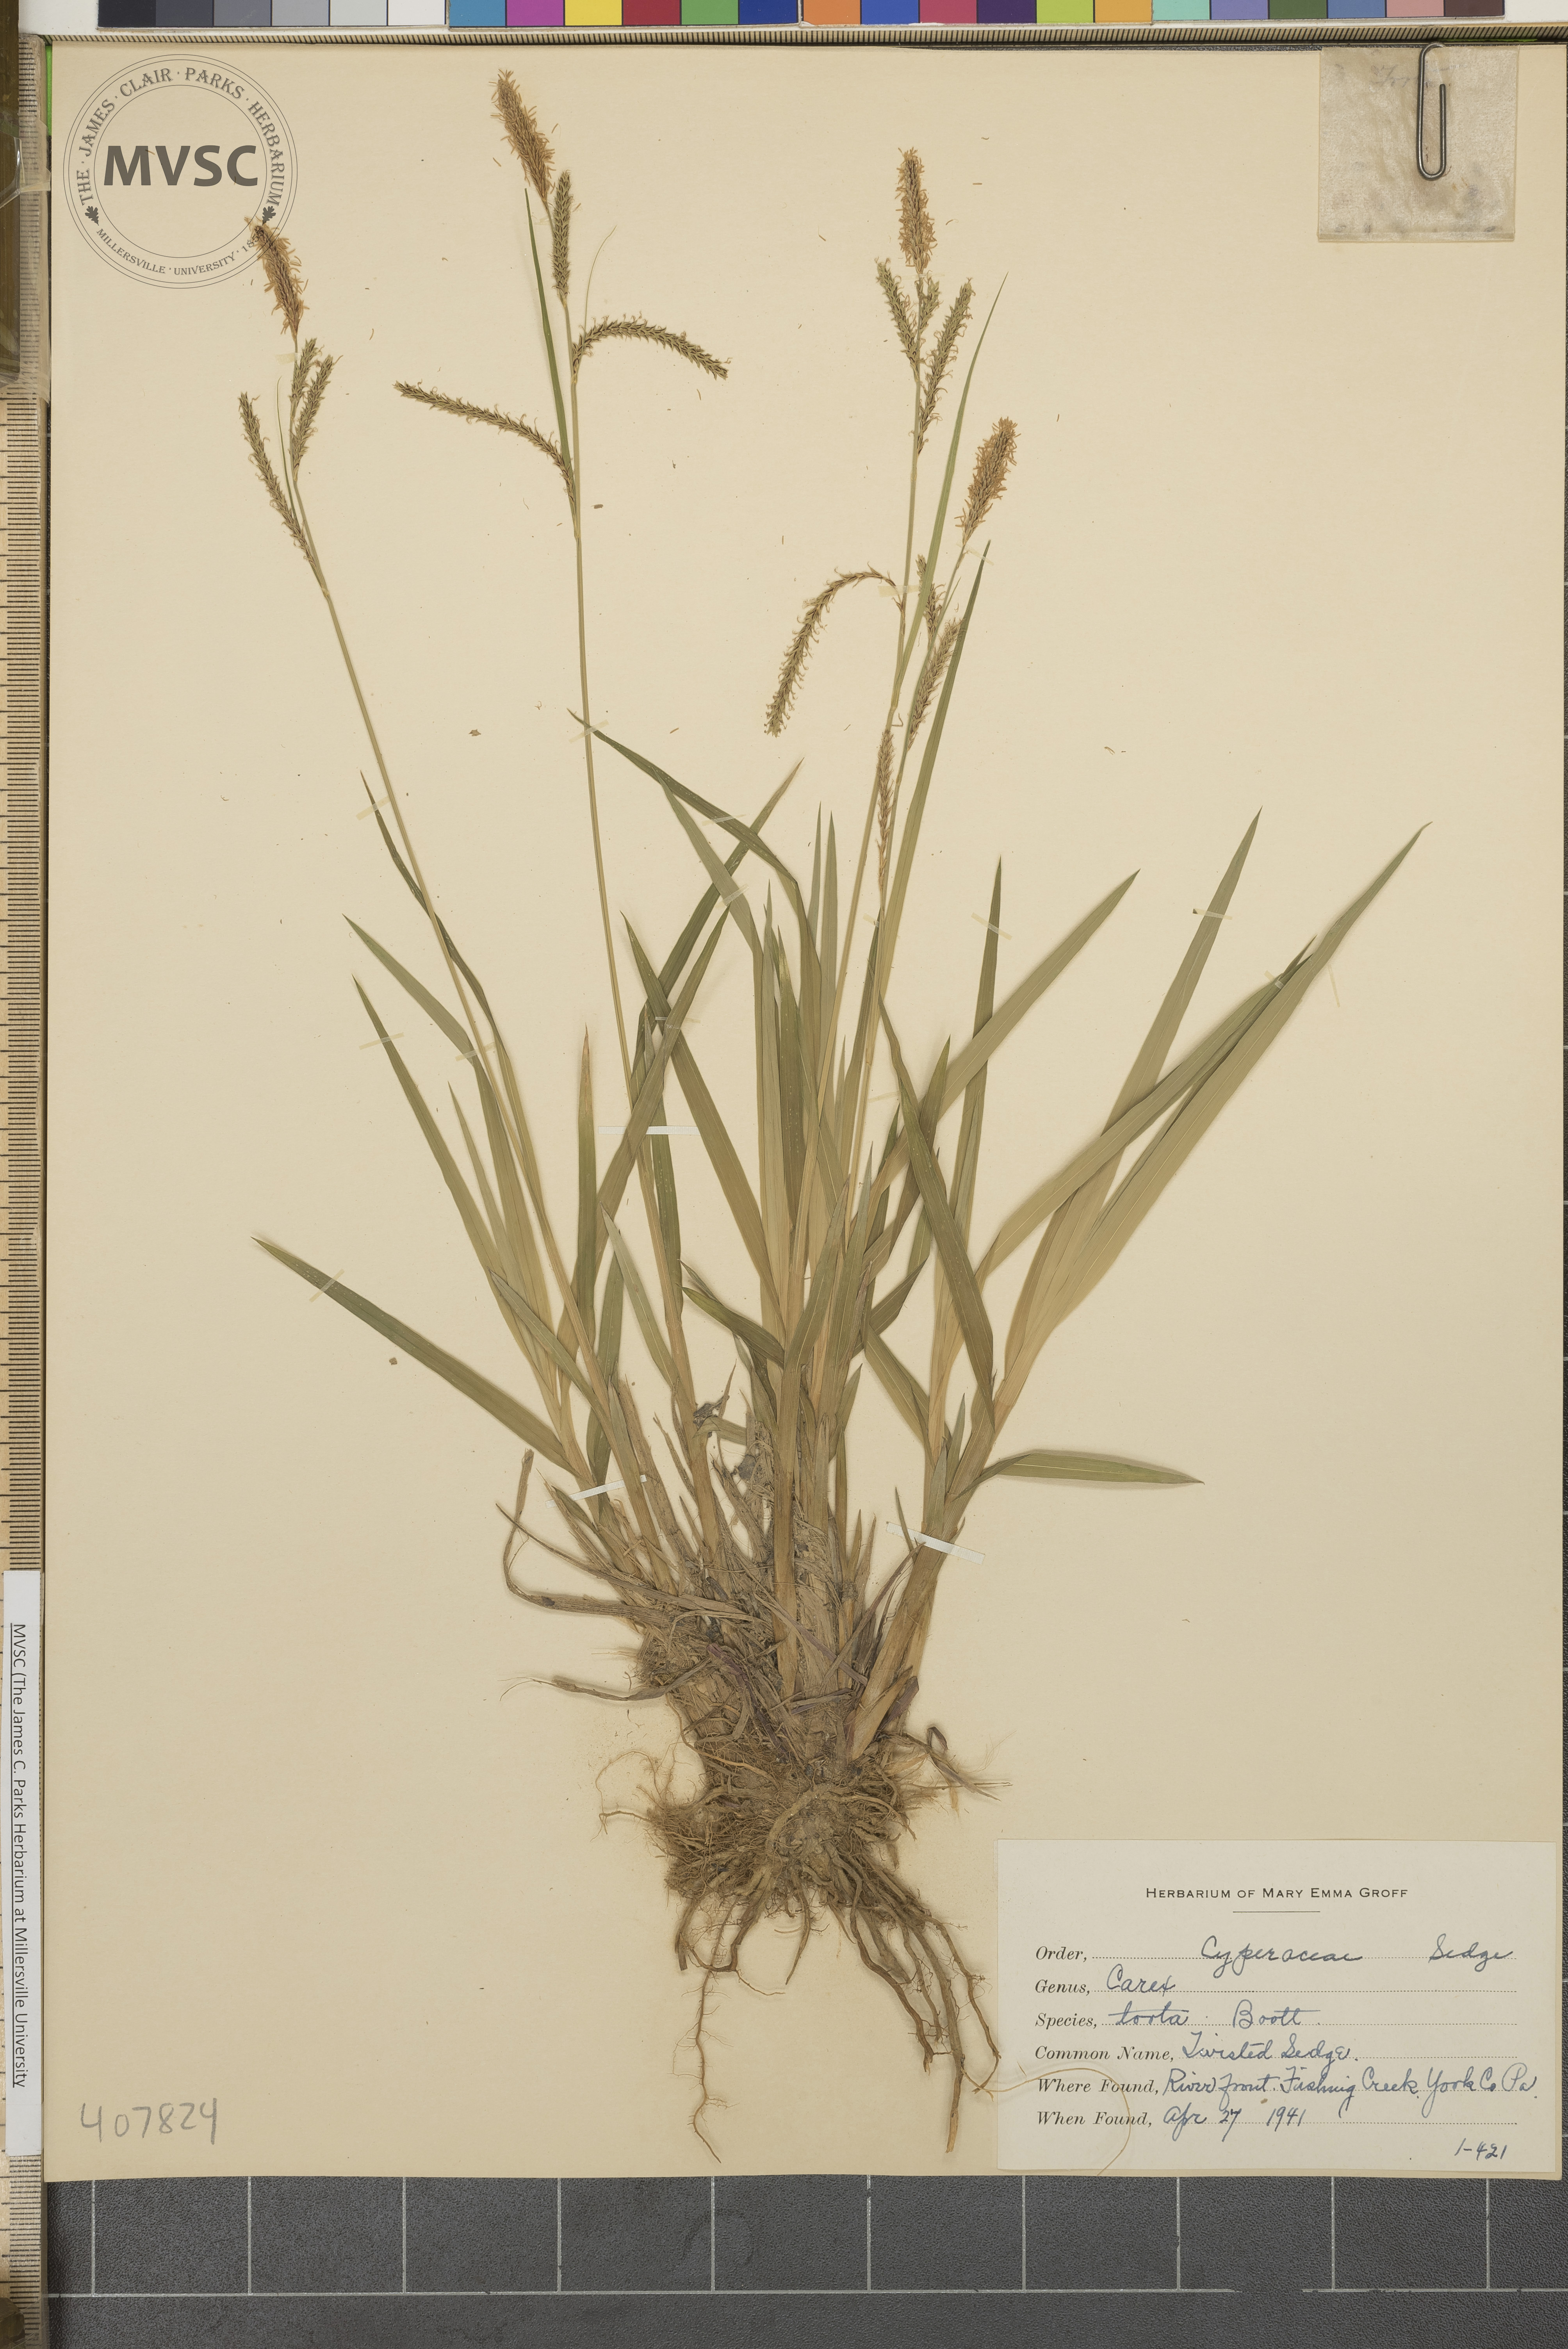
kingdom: Plantae
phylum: Tracheophyta
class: Liliopsida
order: Poales
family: Cyperaceae
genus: Carex
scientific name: Carex torta
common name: Twisted Sedge
